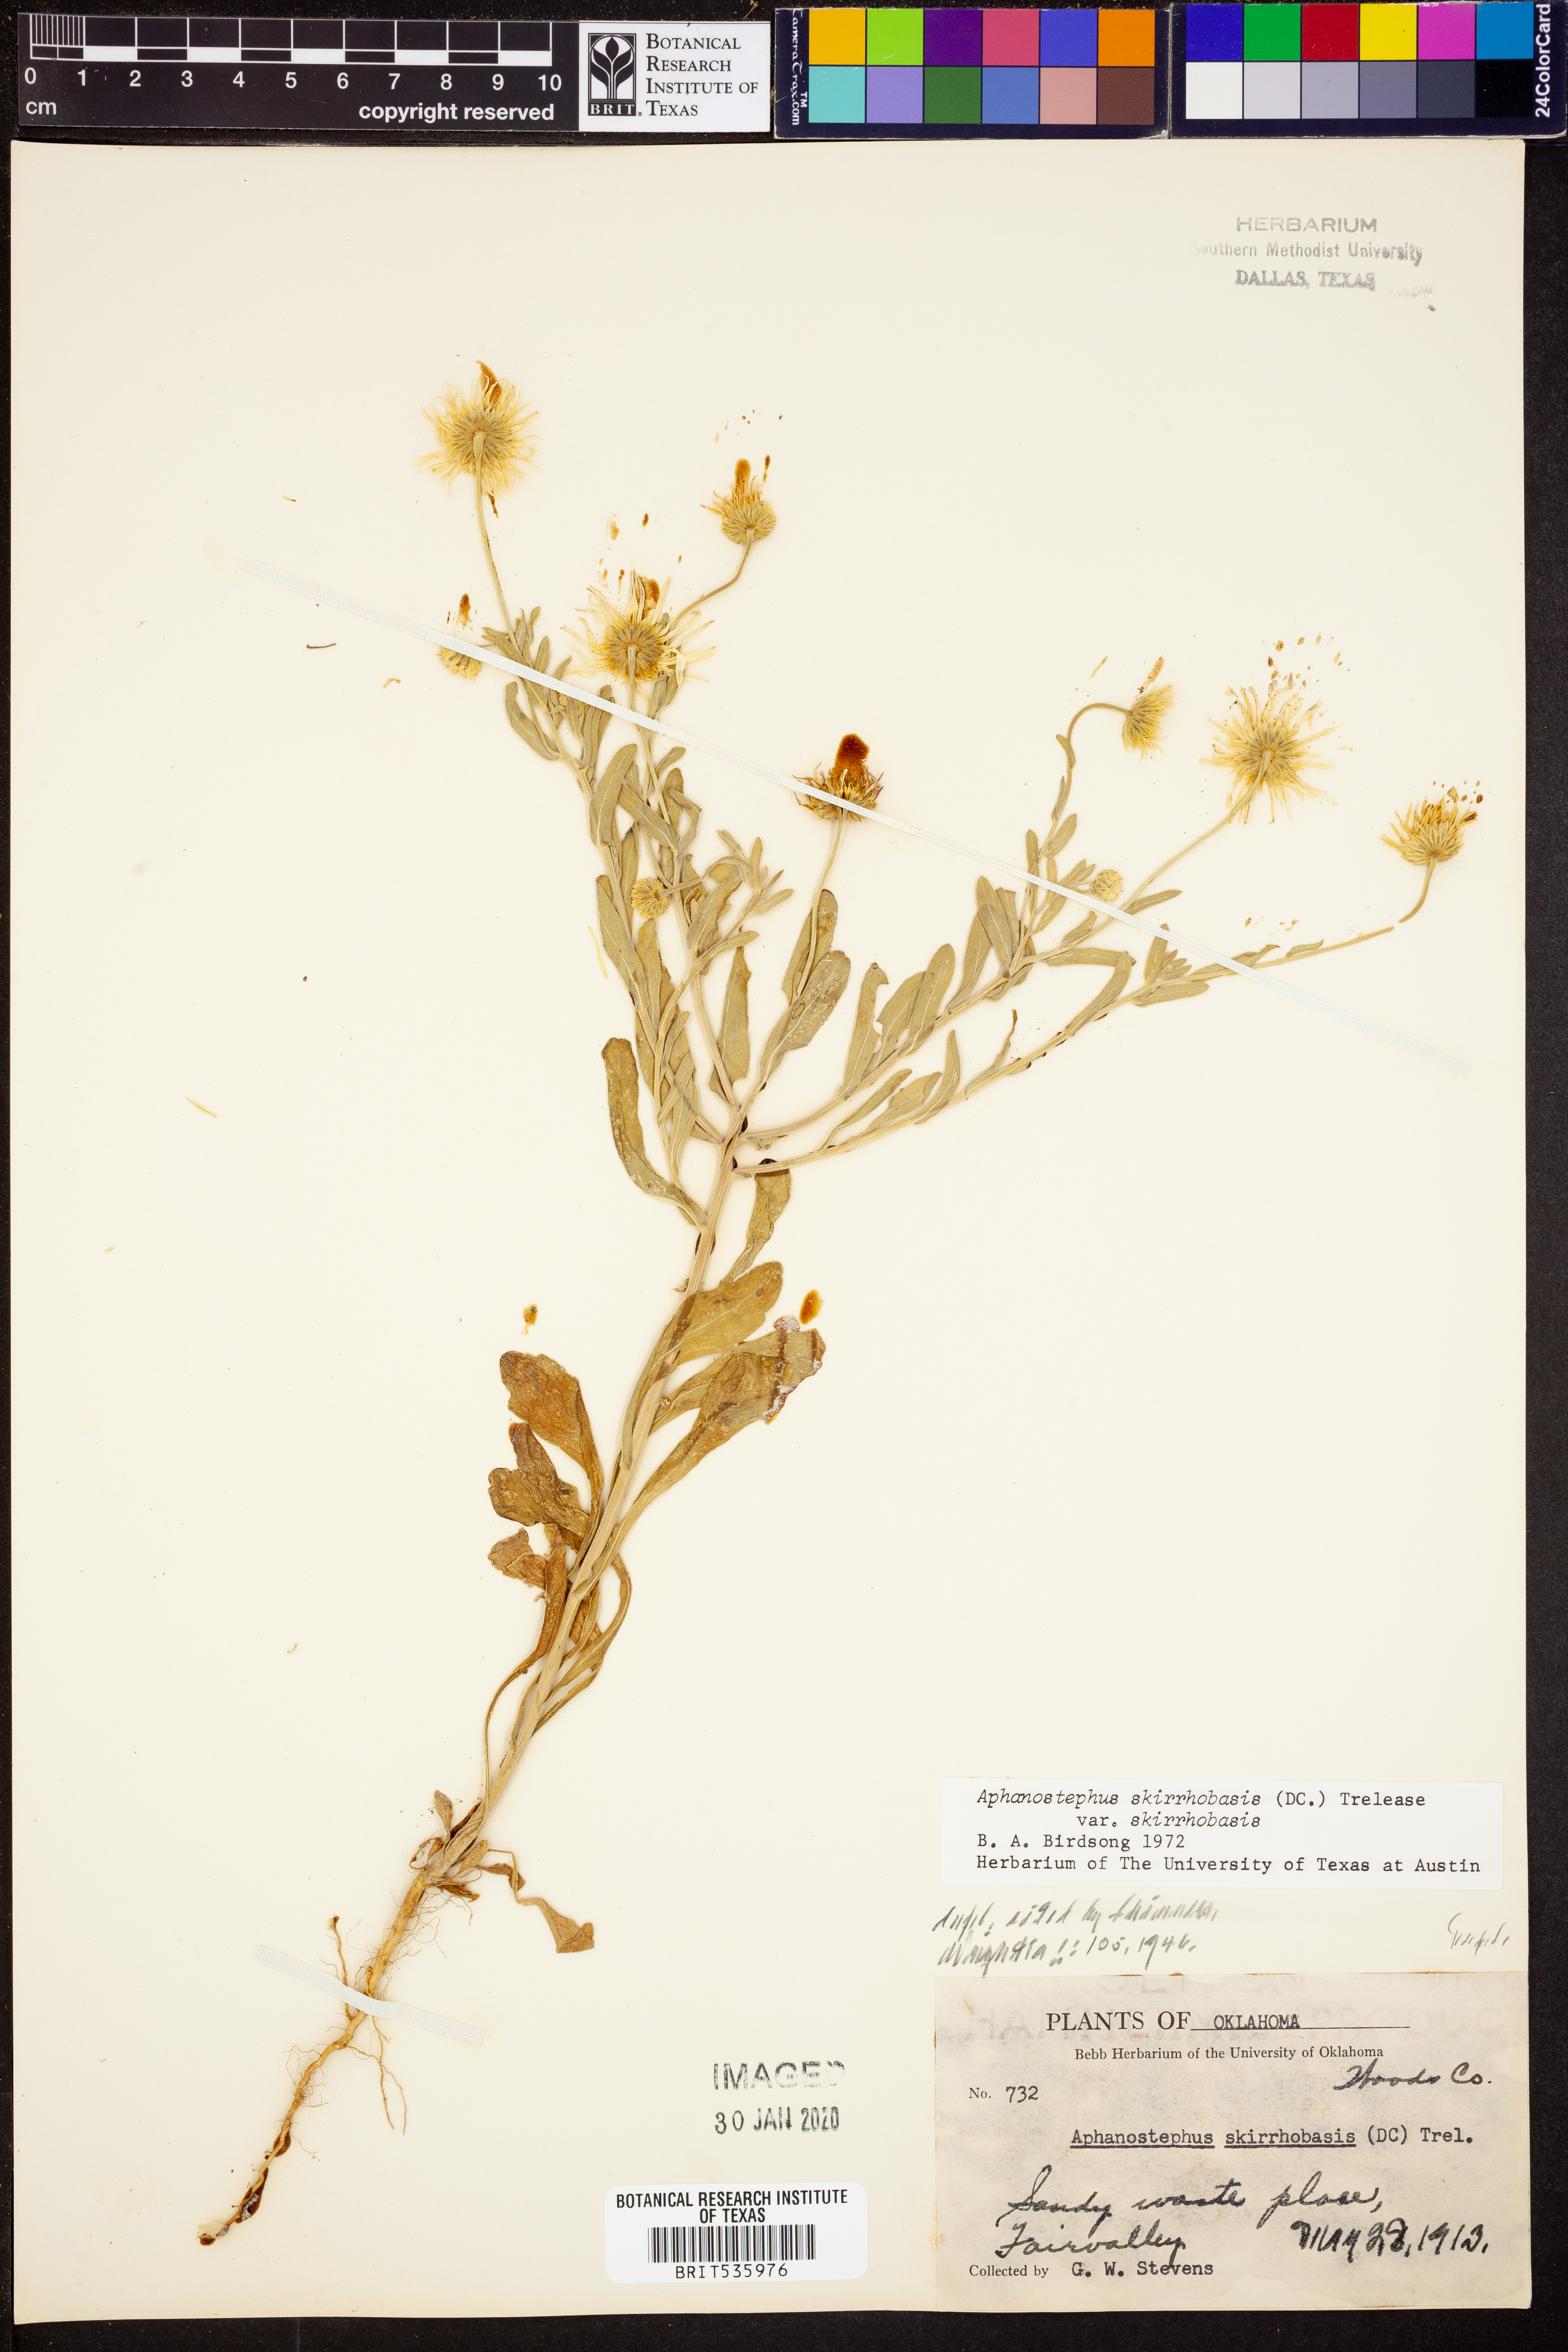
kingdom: Plantae
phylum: Tracheophyta
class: Magnoliopsida
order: Asterales
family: Asteraceae
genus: Aphanostephus
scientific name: Aphanostephus skirrhobasis
